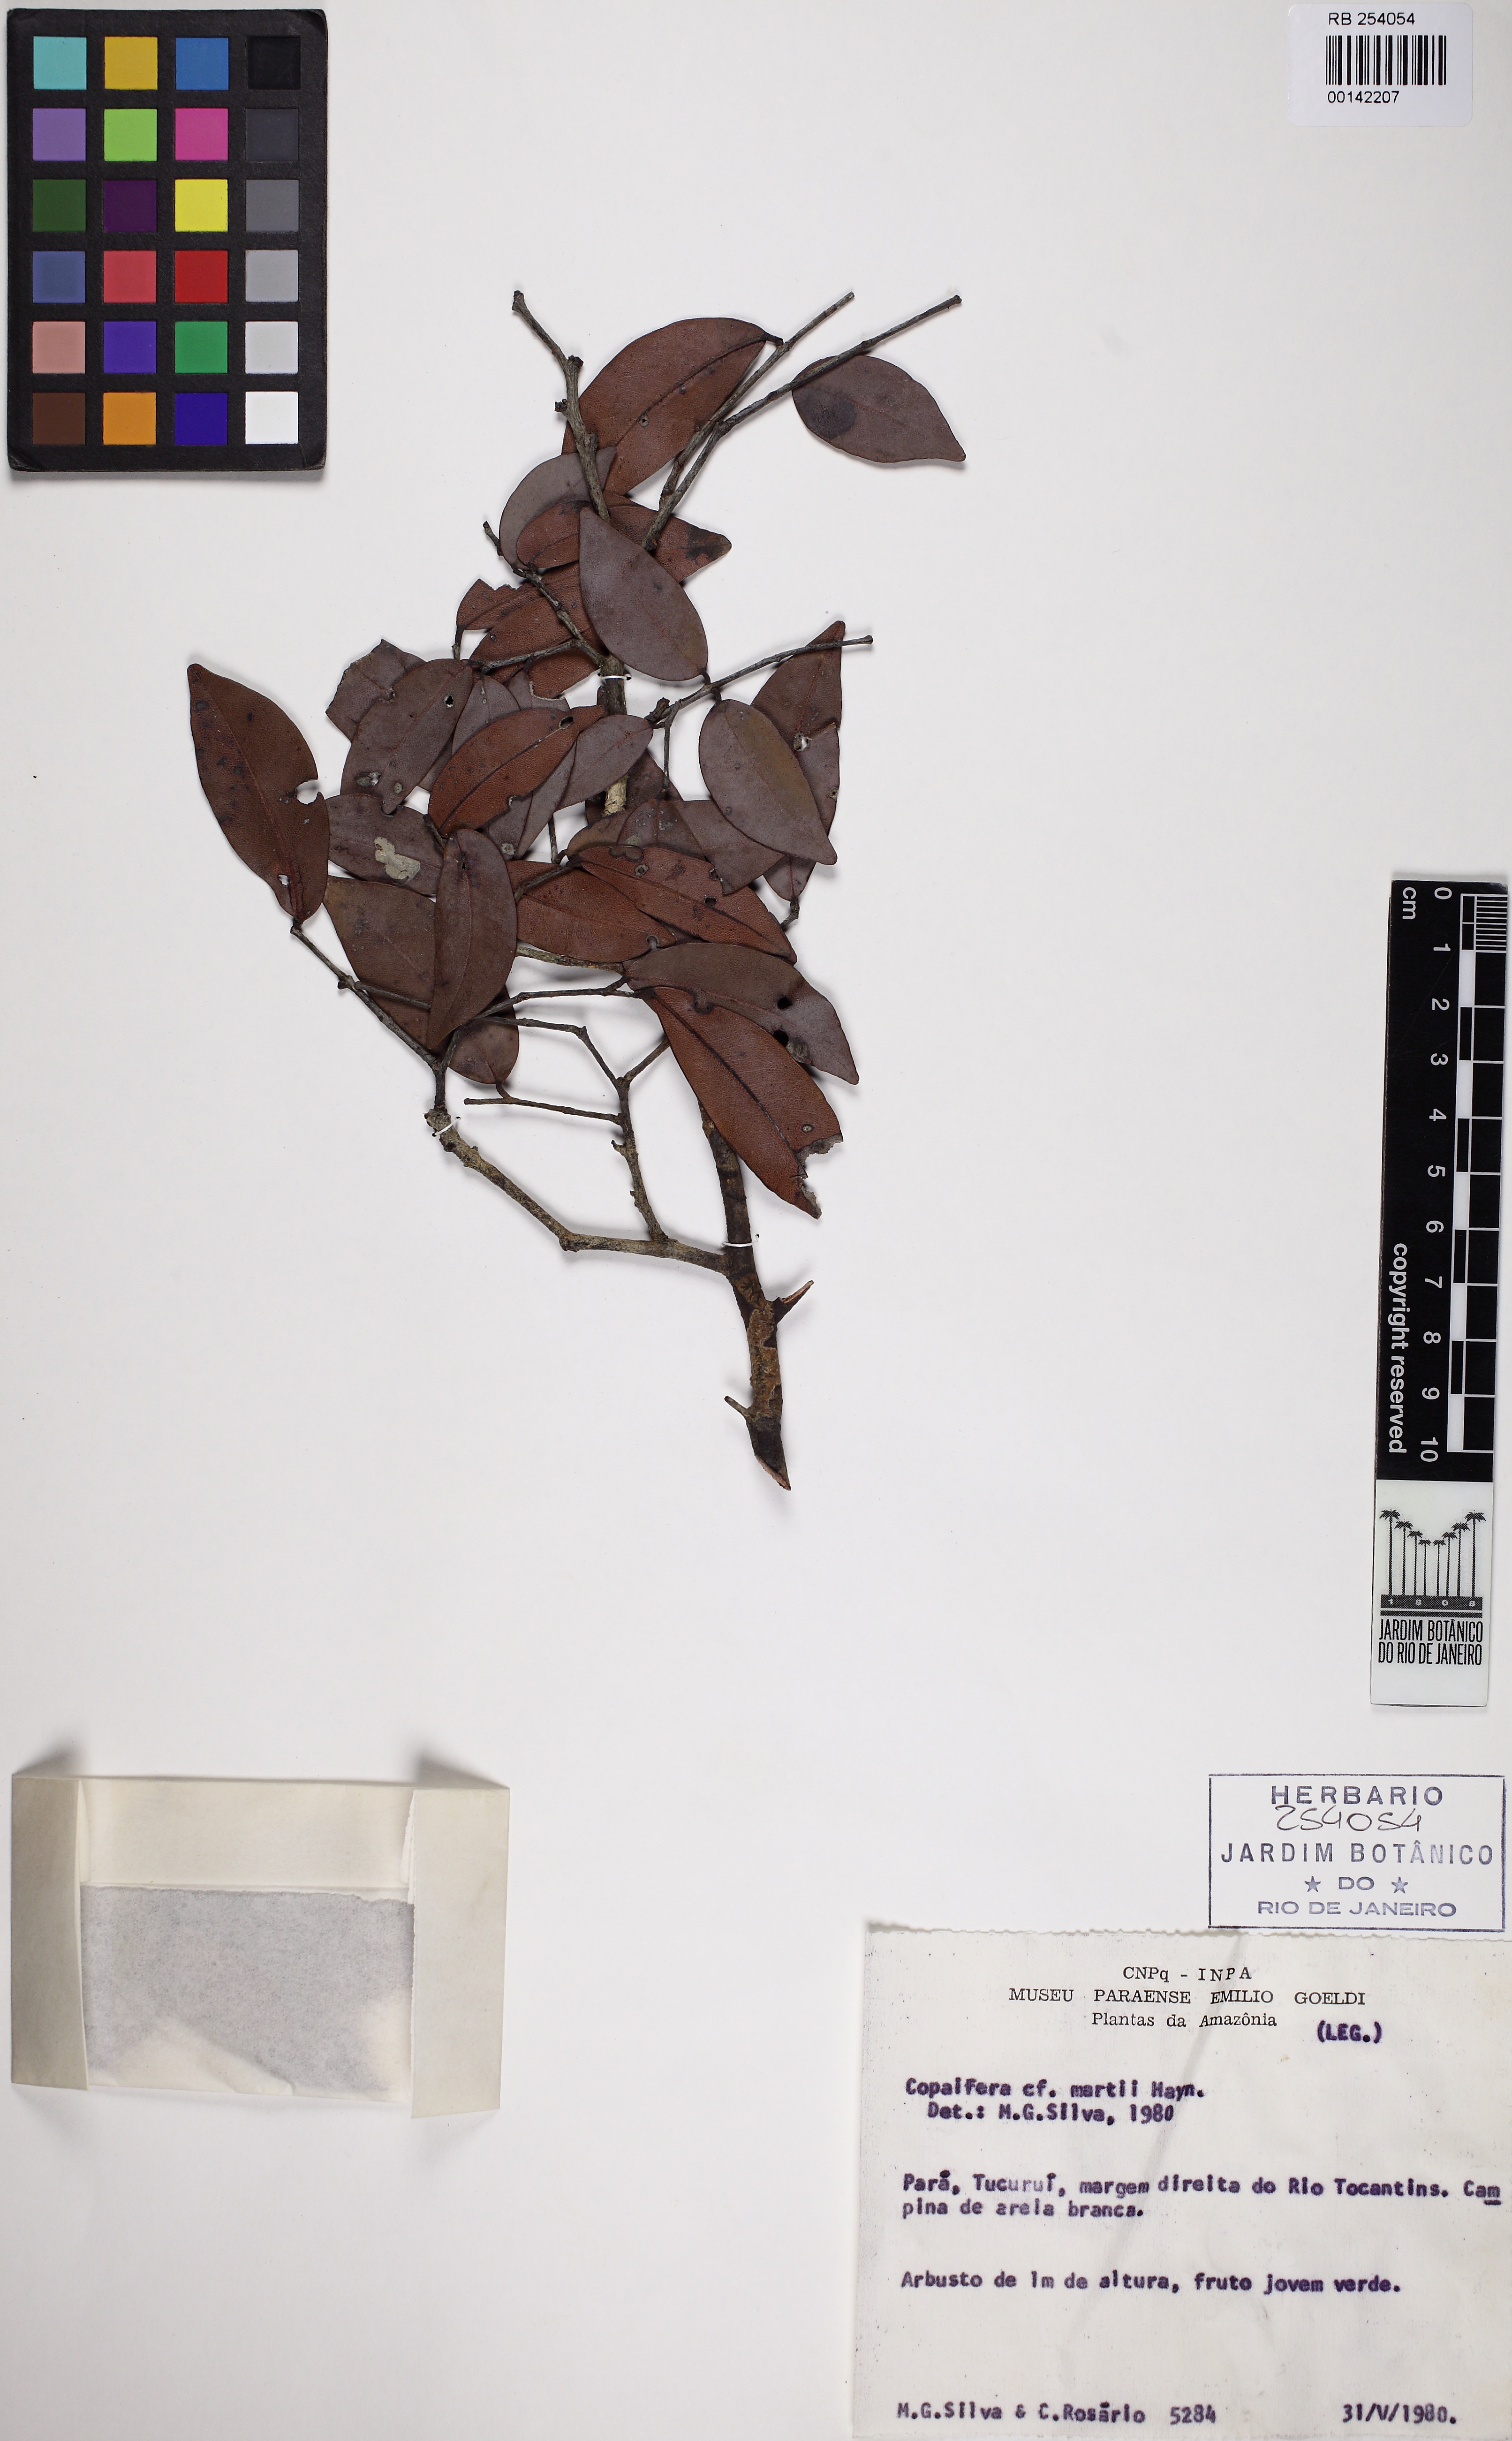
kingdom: Plantae
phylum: Tracheophyta
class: Magnoliopsida
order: Fabales
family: Fabaceae
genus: Copaifera
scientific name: Copaifera martii
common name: Copaiba
